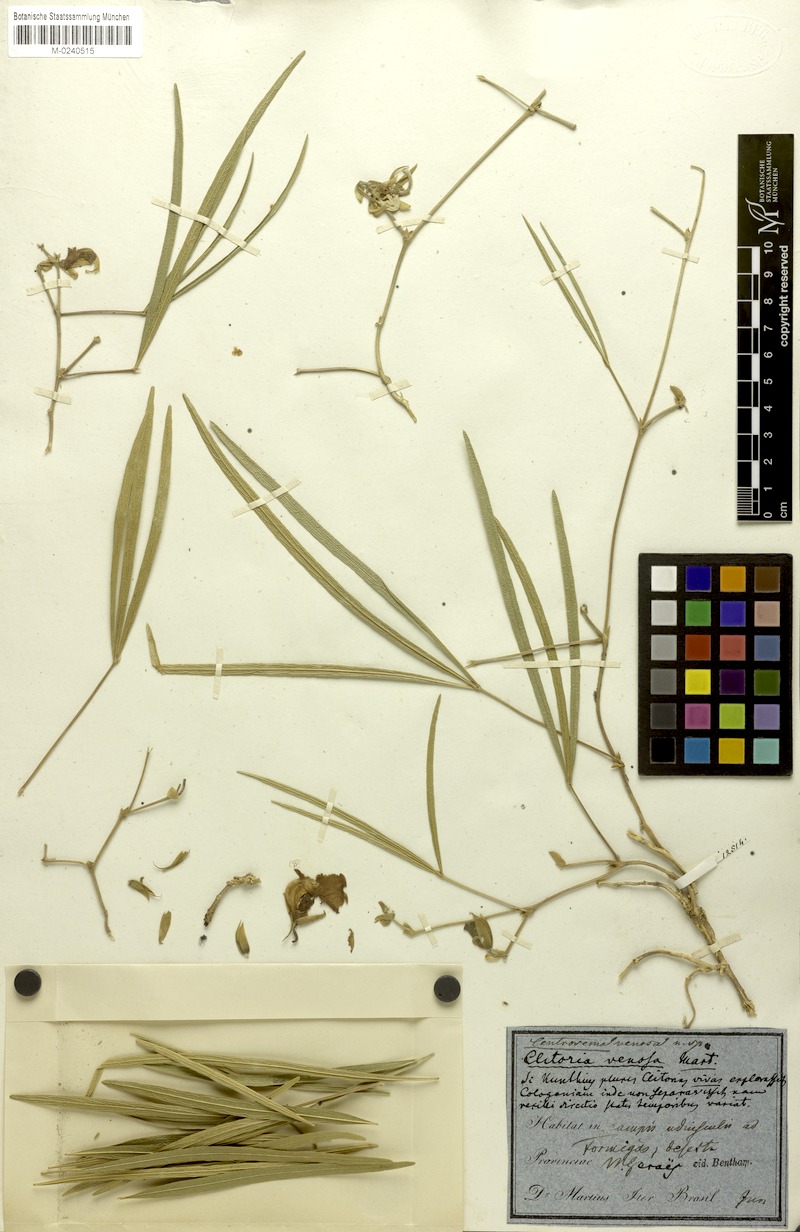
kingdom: Plantae
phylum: Tracheophyta
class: Magnoliopsida
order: Fabales
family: Fabaceae
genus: Centrosema
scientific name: Centrosema venosum
